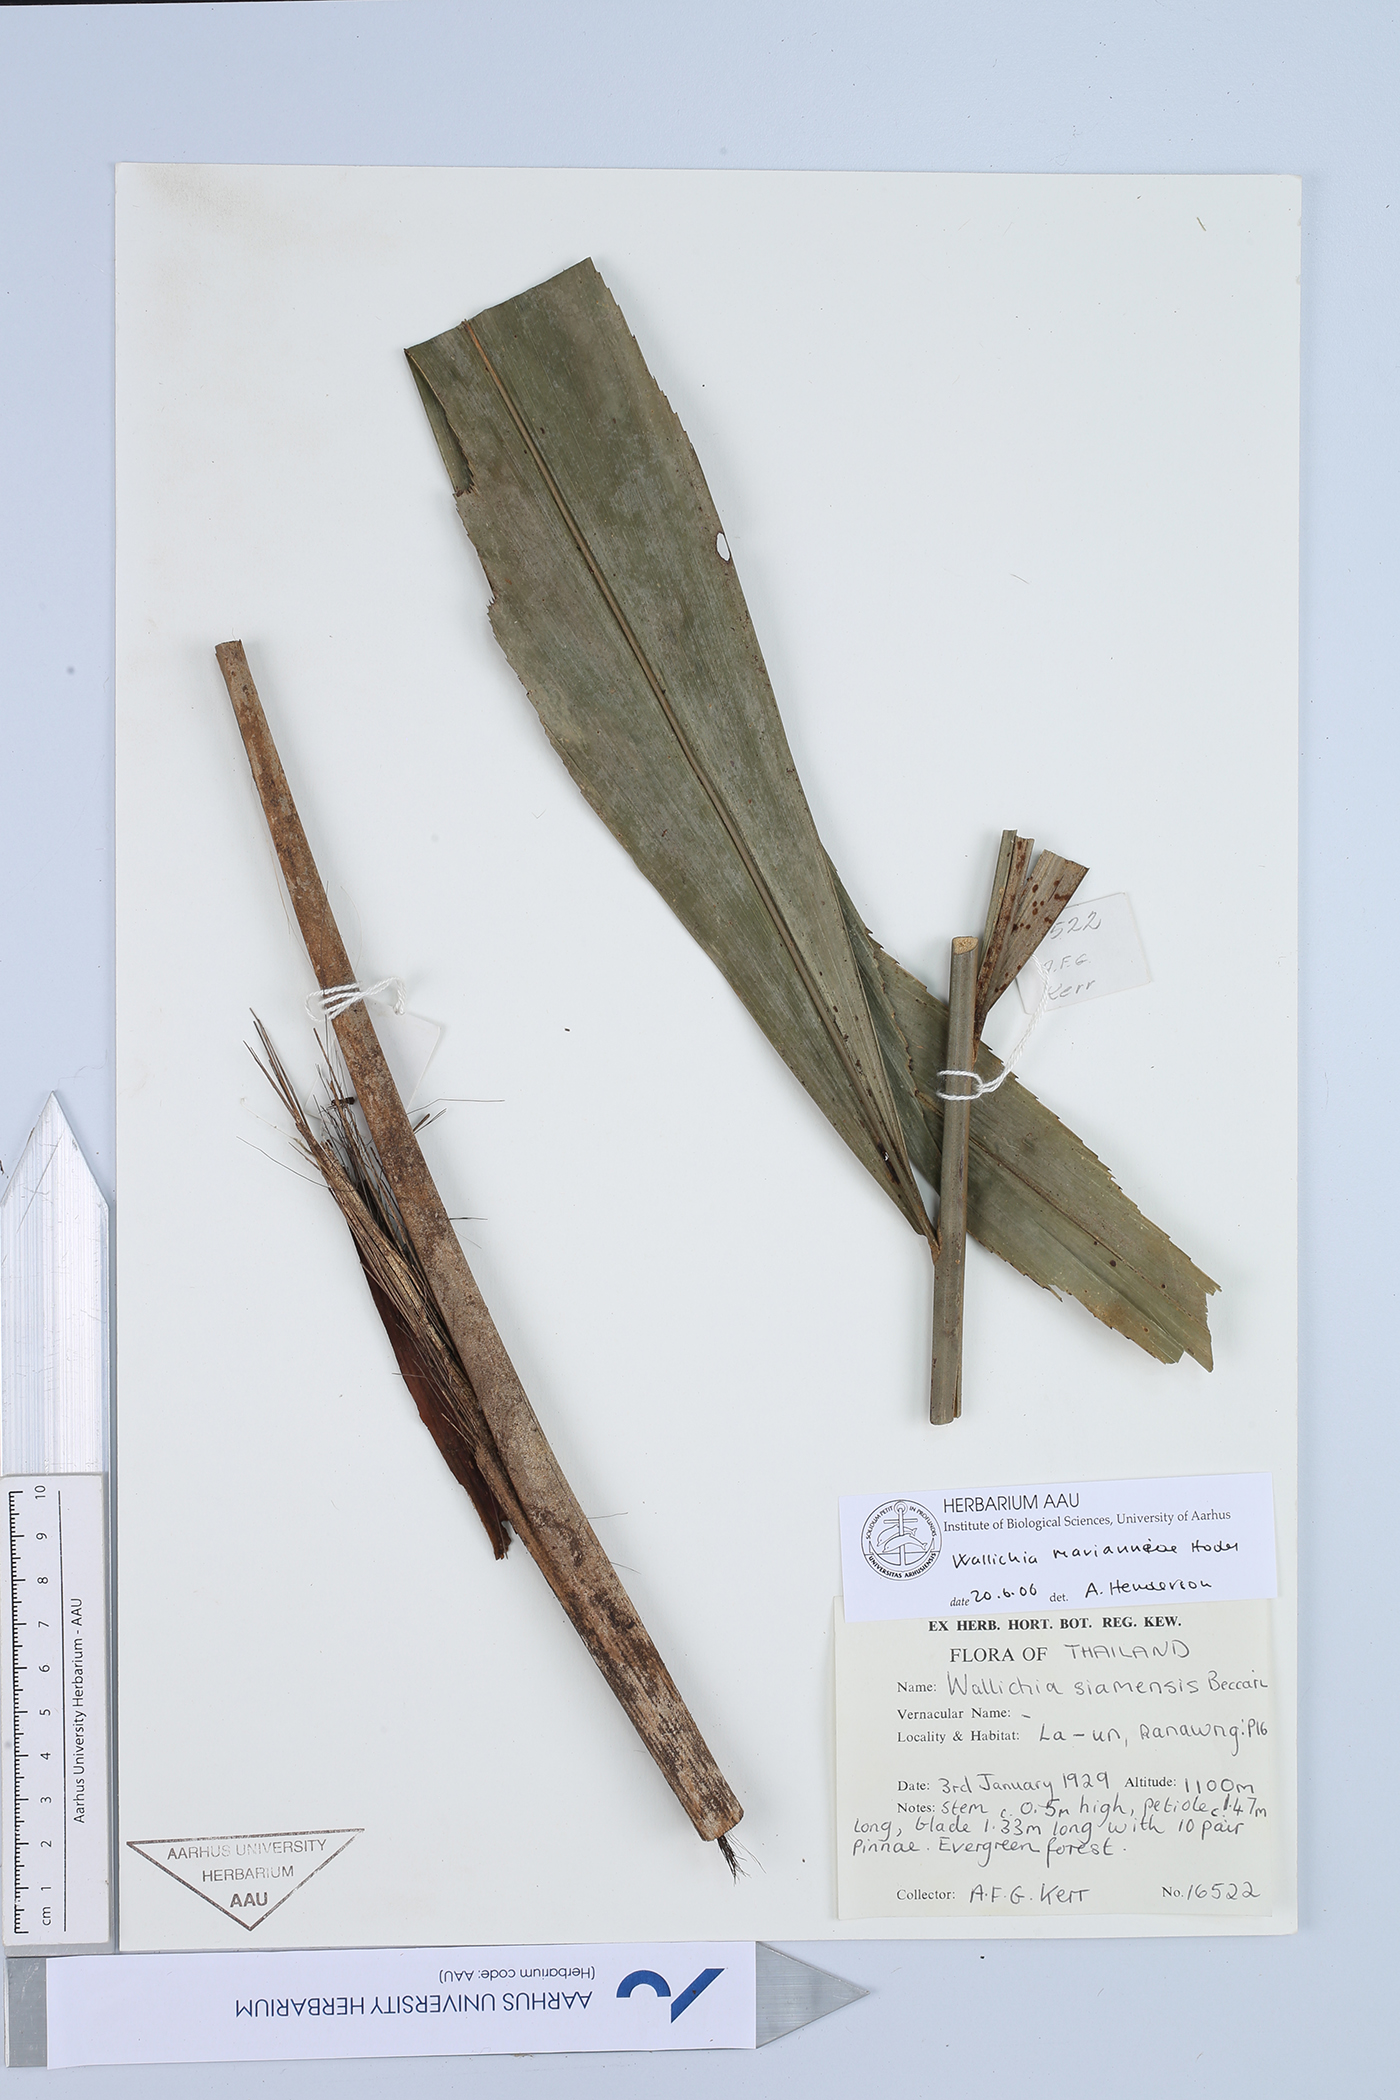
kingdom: Plantae
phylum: Tracheophyta
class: Liliopsida
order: Arecales
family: Arecaceae
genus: Wallichia
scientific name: Wallichia marianniae
